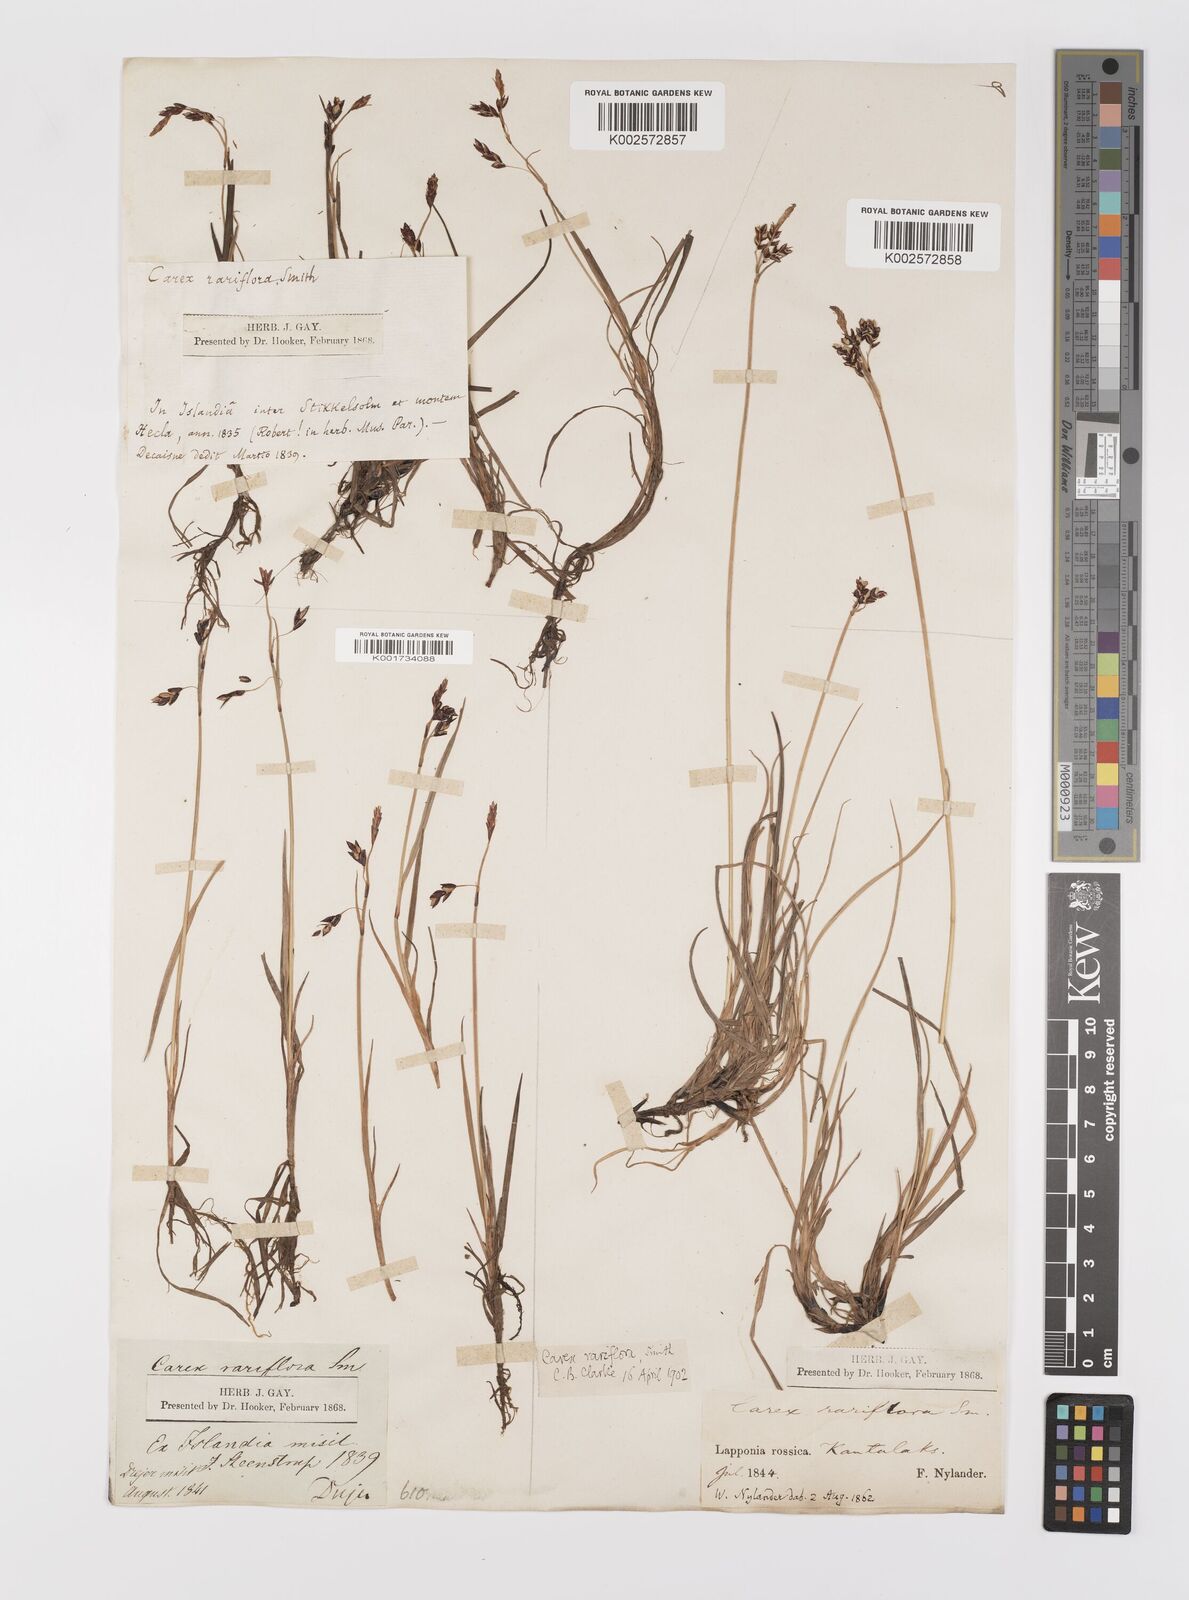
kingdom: Plantae
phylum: Tracheophyta
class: Liliopsida
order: Poales
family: Cyperaceae
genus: Carex
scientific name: Carex rariflora
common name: Loose-flowered alpine sedge
